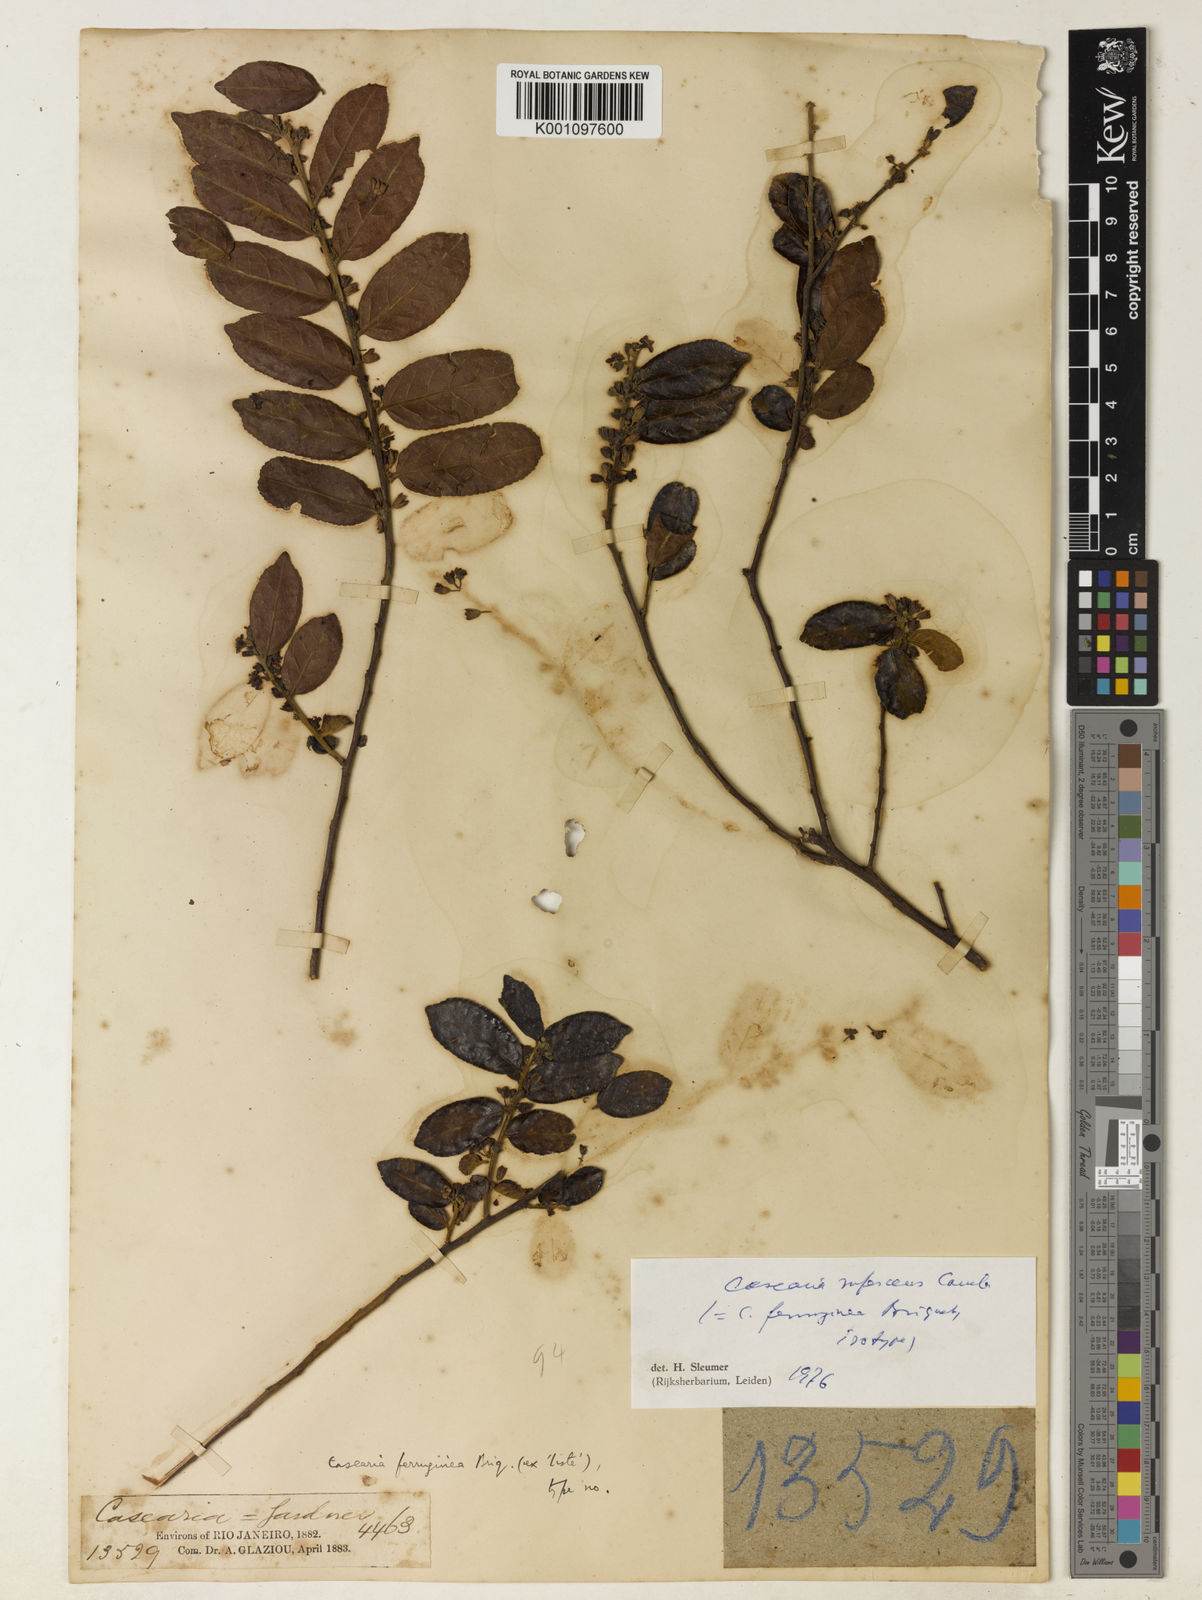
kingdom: Plantae
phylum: Tracheophyta
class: Magnoliopsida
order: Malpighiales
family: Salicaceae
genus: Casearia
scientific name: Casearia rufescens
